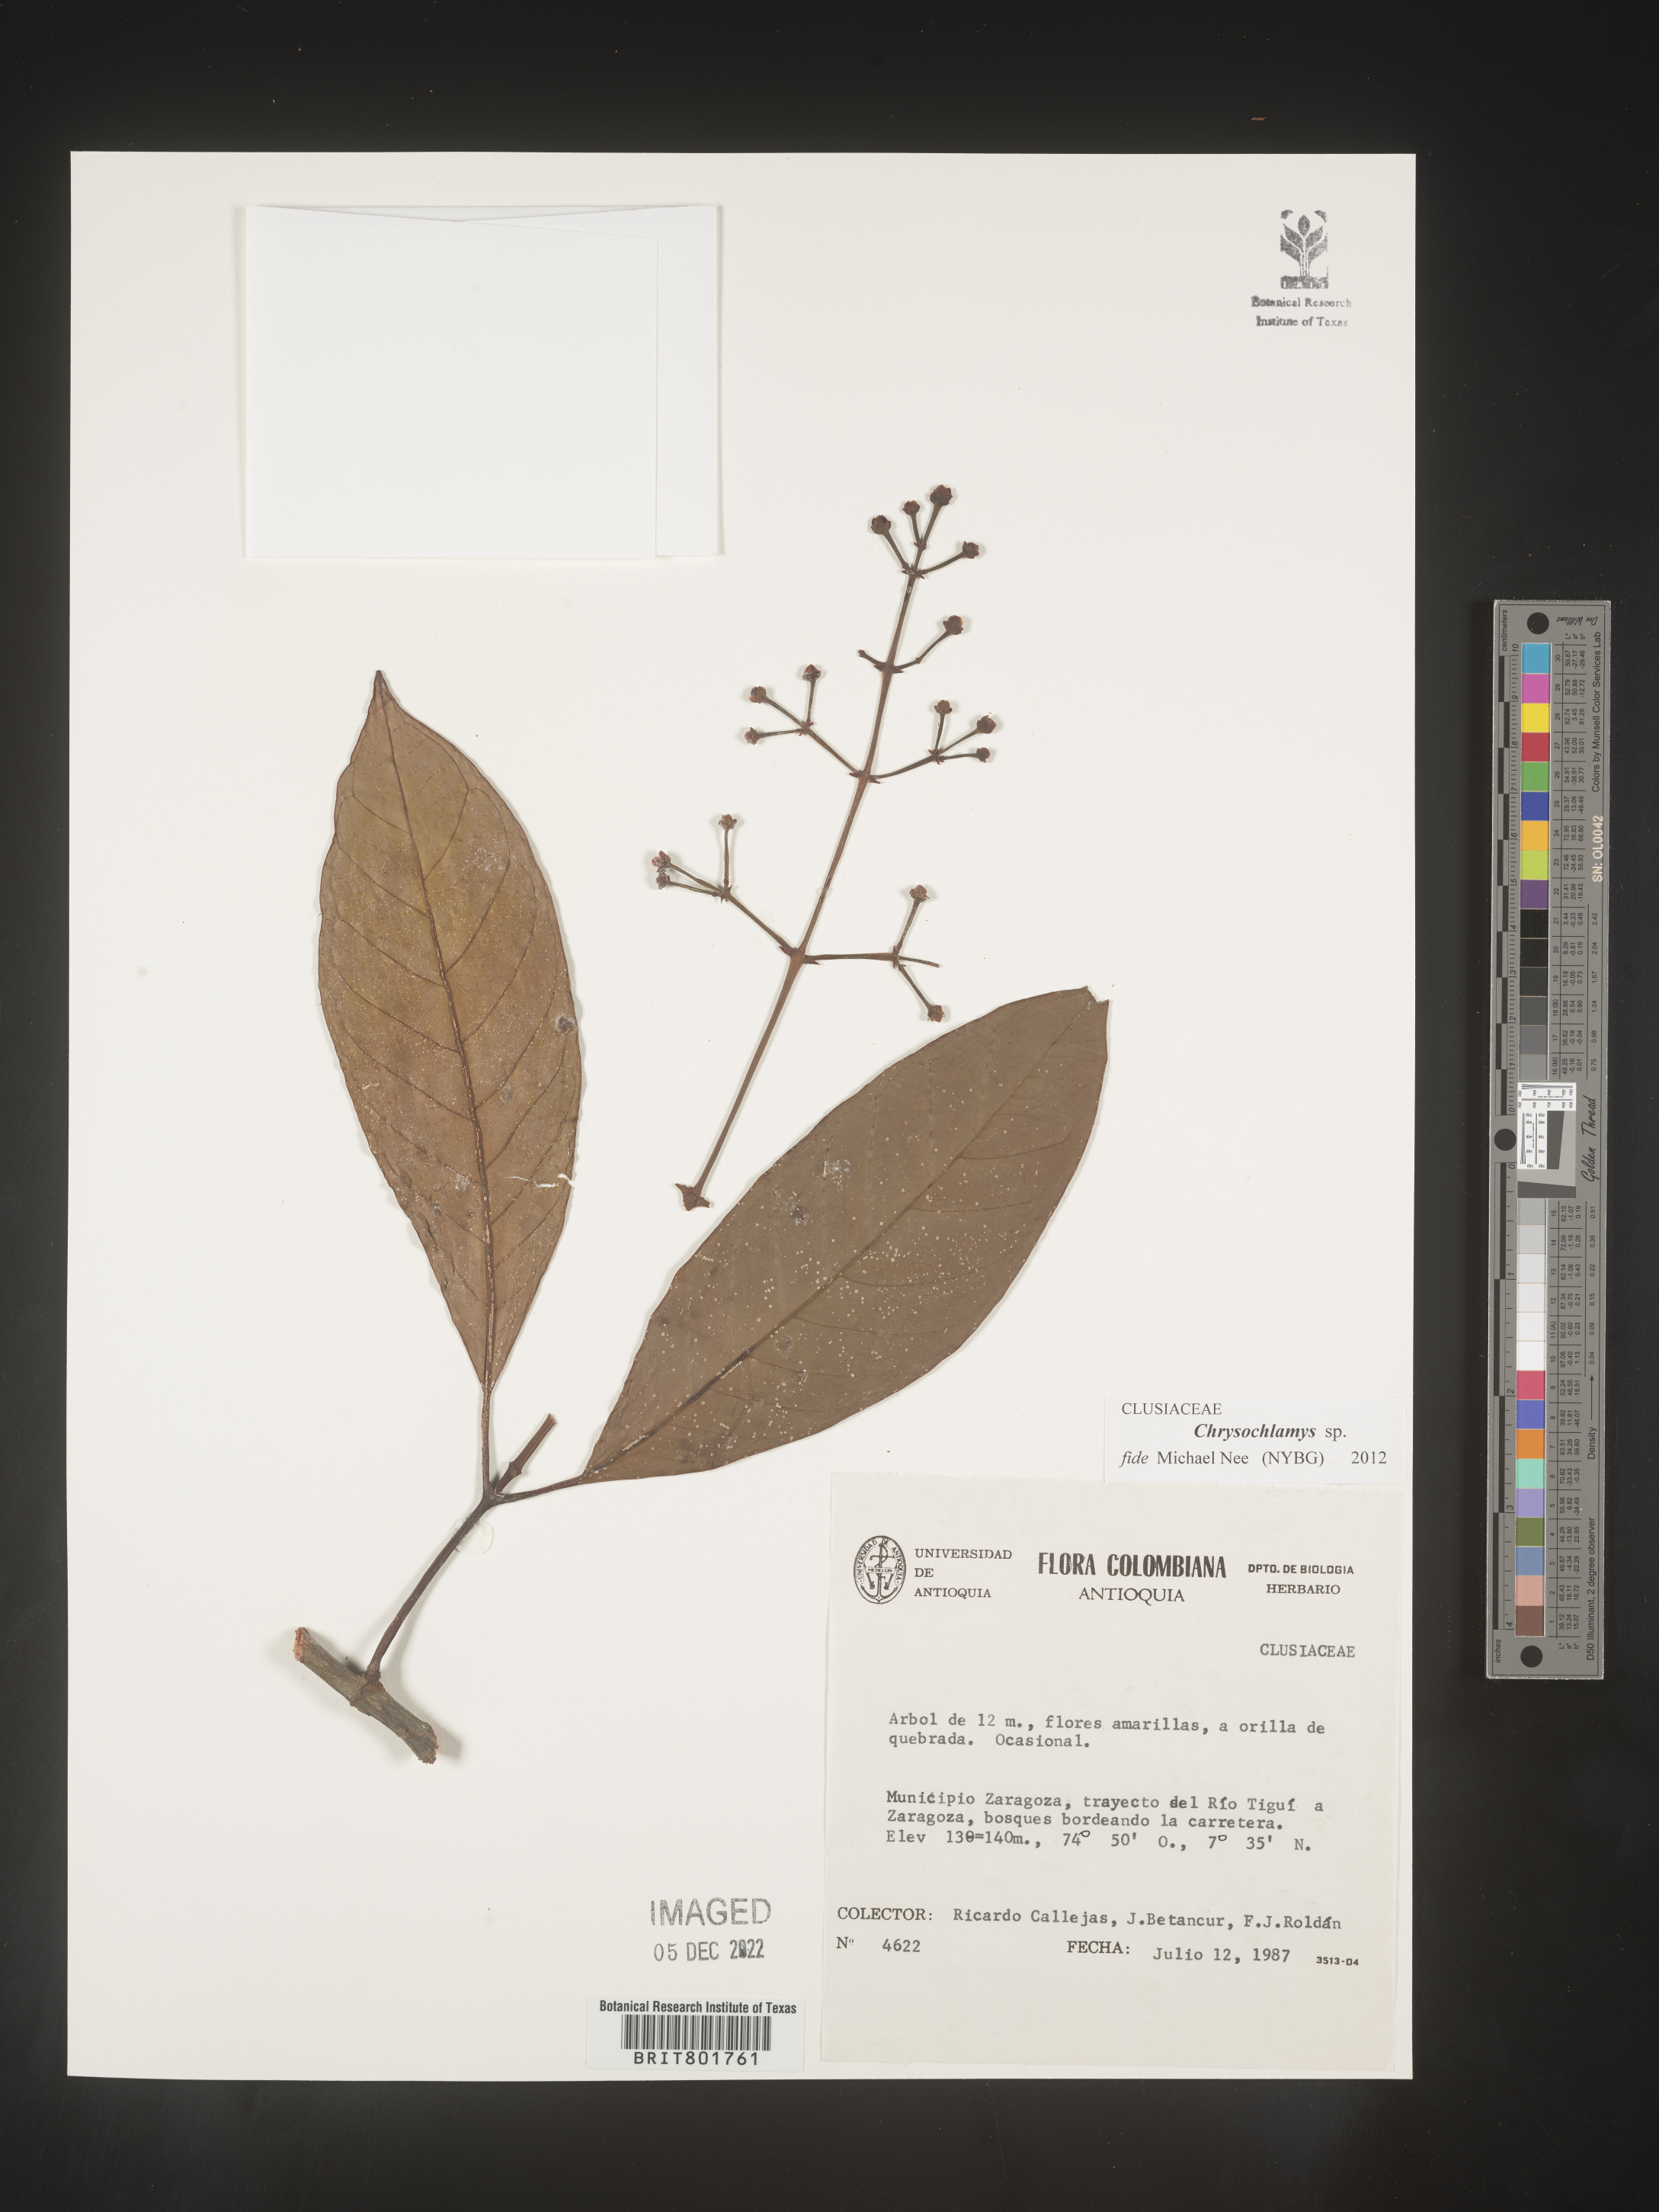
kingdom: Plantae
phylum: Tracheophyta
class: Magnoliopsida
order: Malpighiales
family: Clusiaceae
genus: Chrysochlamys
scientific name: Chrysochlamys
